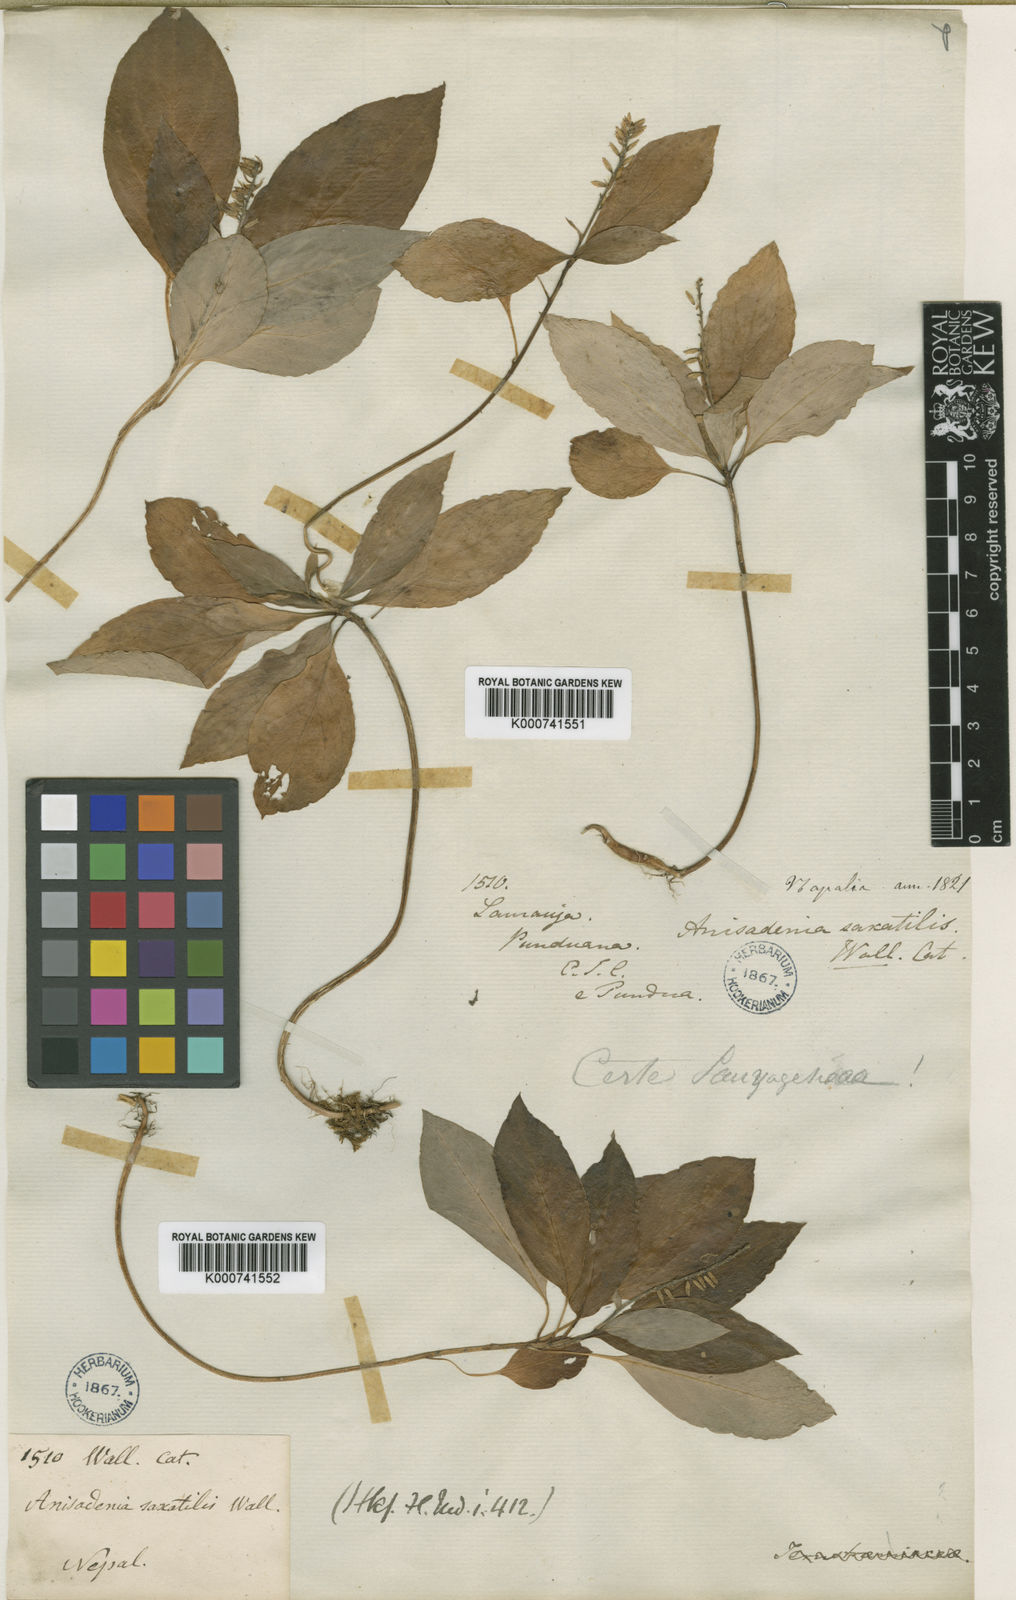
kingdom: Plantae
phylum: Tracheophyta
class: Magnoliopsida
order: Malpighiales
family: Linaceae
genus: Anisadenia
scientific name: Anisadenia
